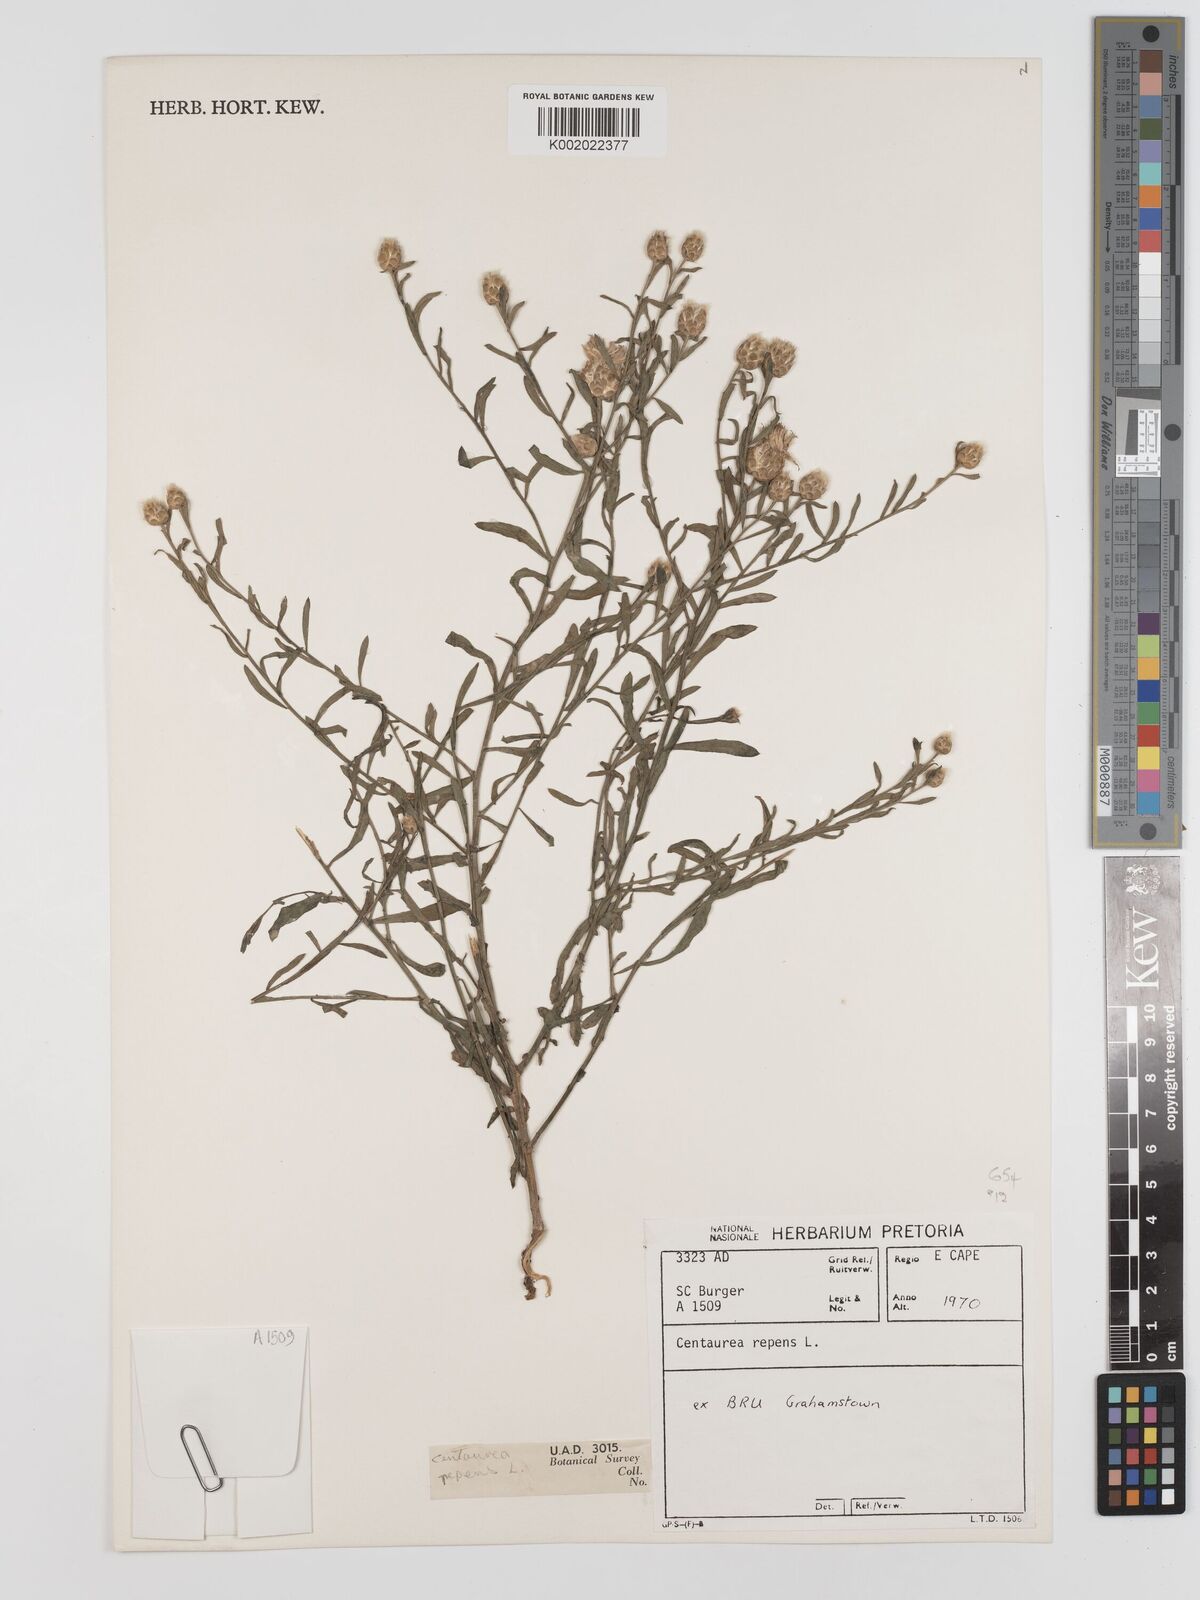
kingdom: Plantae
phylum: Tracheophyta
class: Magnoliopsida
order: Asterales
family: Asteraceae
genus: Leuzea
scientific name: Leuzea repens
